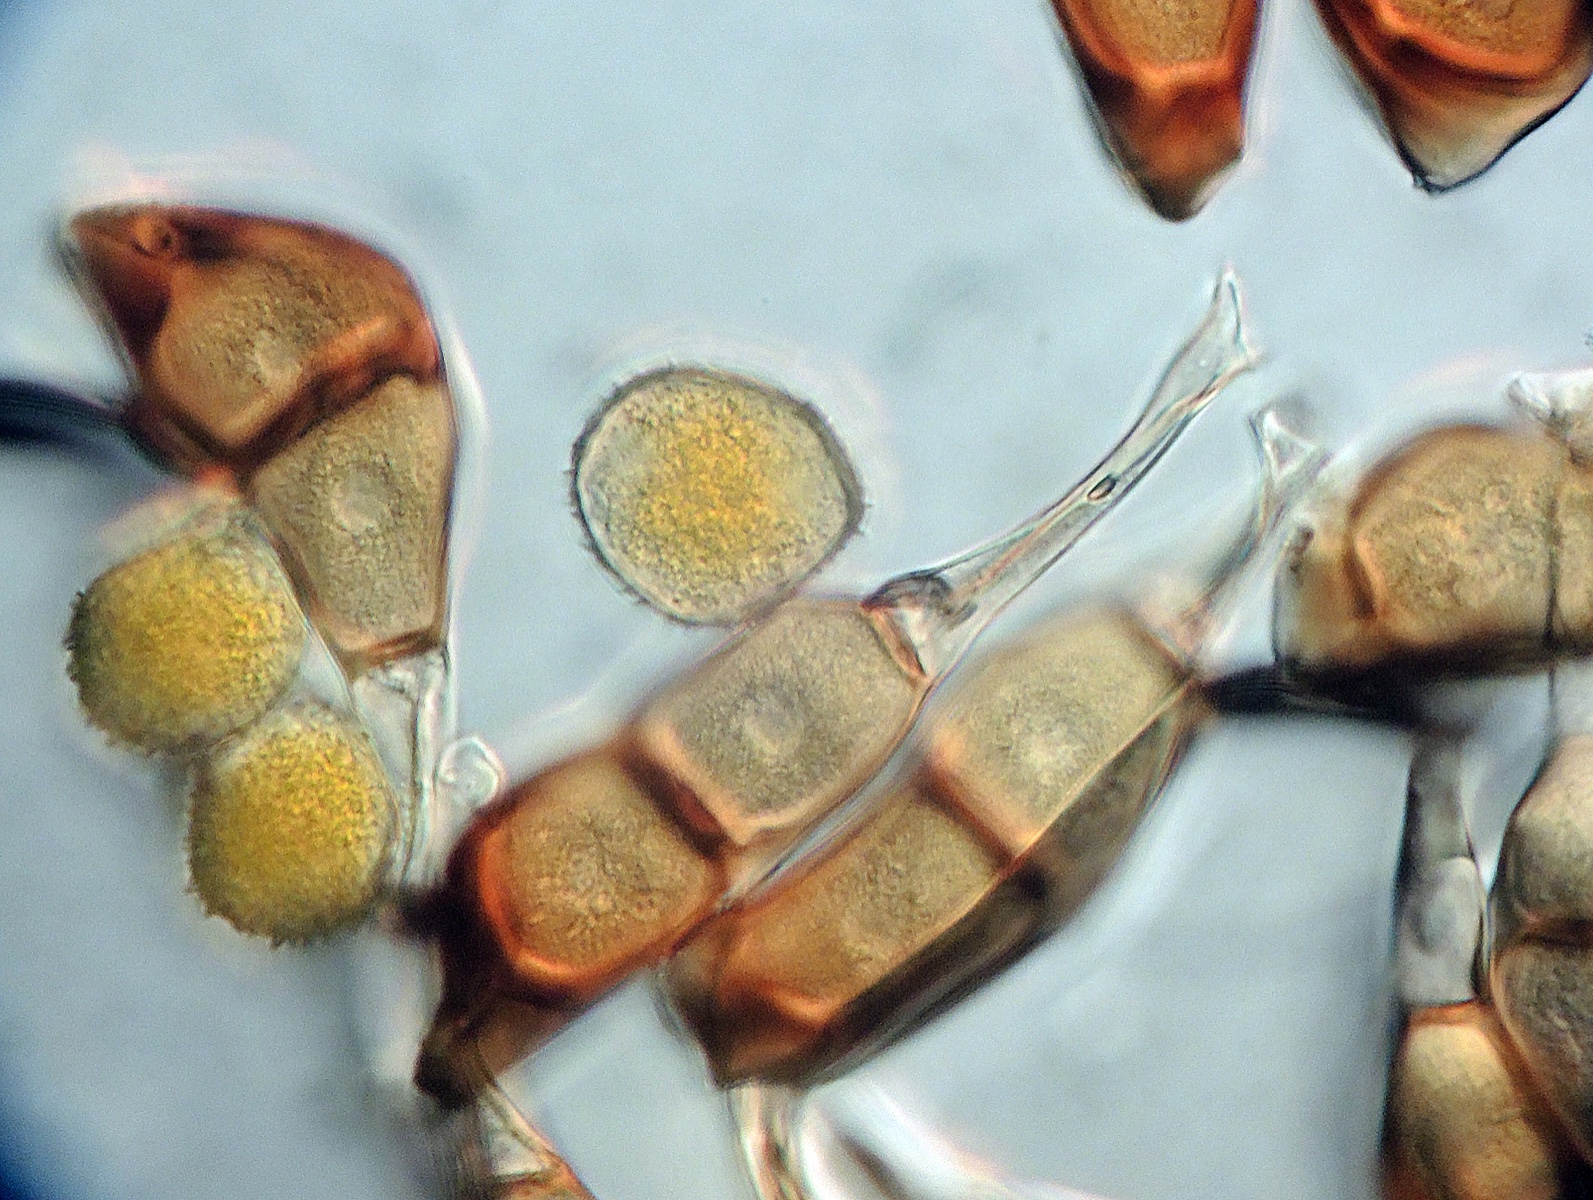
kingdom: Fungi
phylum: Basidiomycota
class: Pucciniomycetes
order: Pucciniales
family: Pucciniaceae
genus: Puccinia
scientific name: Puccinia galii-cruciatae
